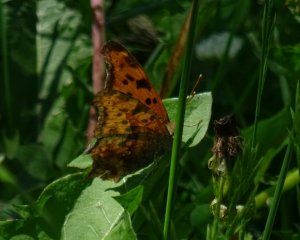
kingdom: Animalia
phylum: Arthropoda
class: Insecta
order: Lepidoptera
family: Nymphalidae
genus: Polygonia
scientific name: Polygonia interrogationis
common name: Question Mark
